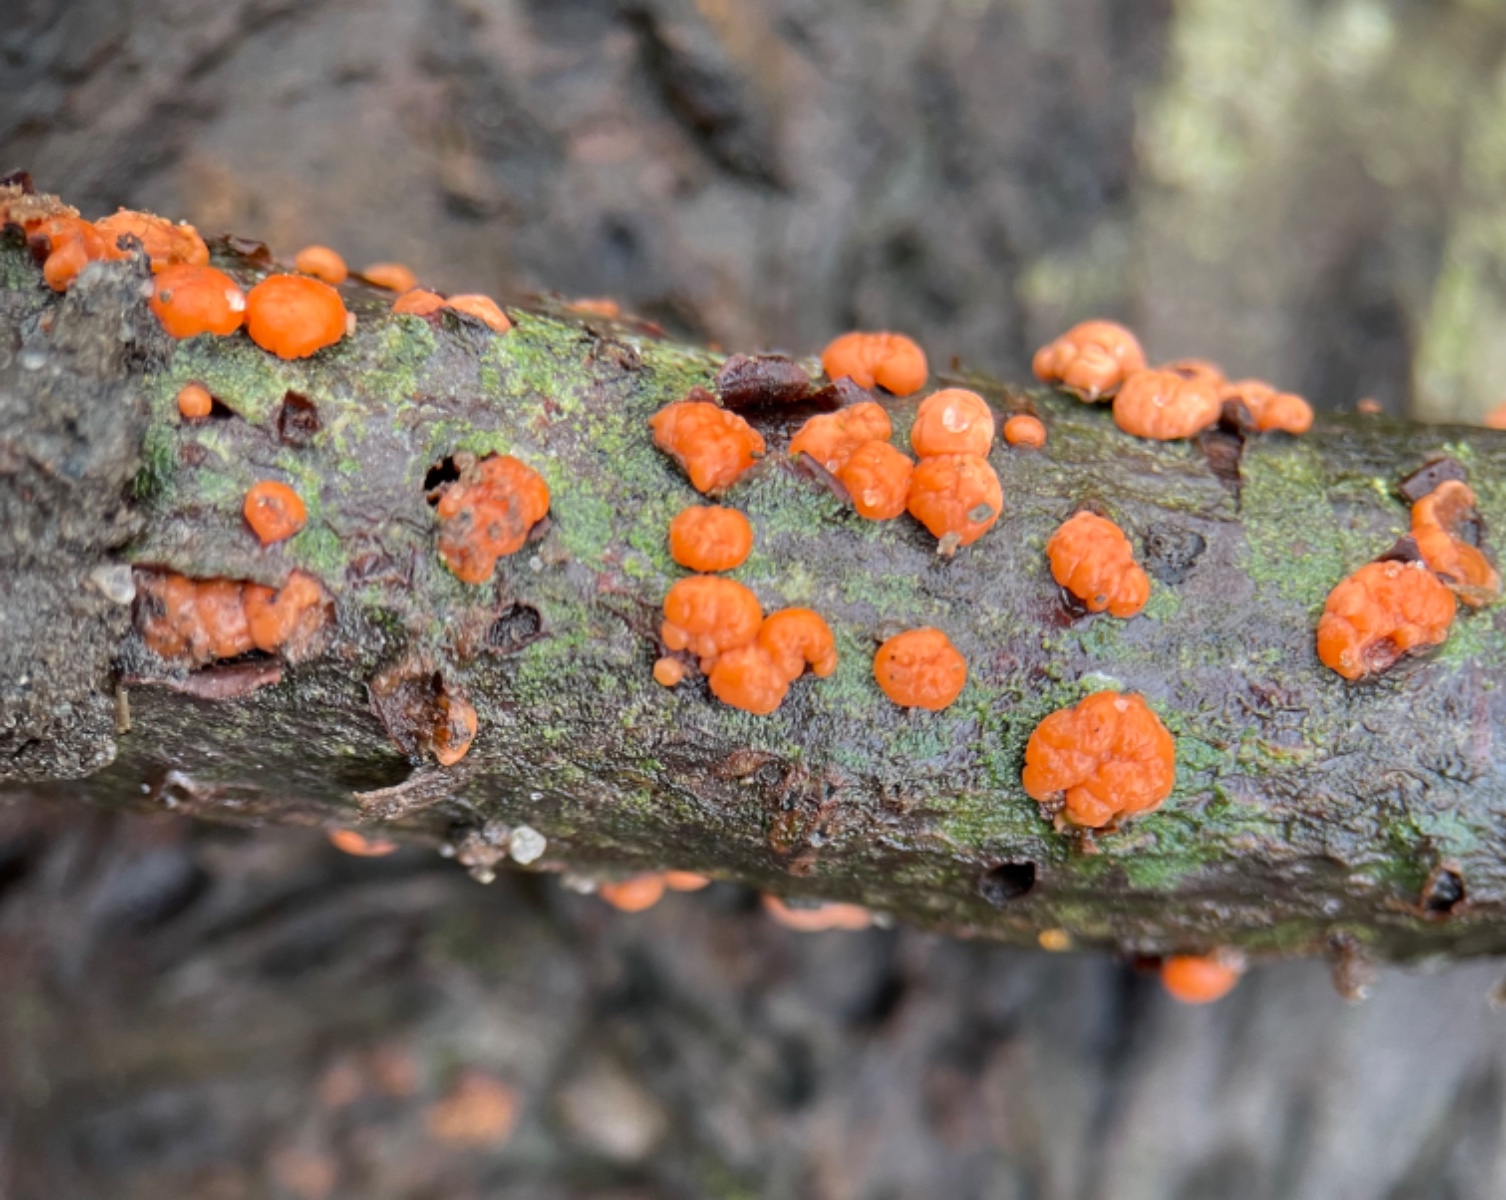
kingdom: Fungi
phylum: Ascomycota
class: Sordariomycetes
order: Hypocreales
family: Nectriaceae
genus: Nectria
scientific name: Nectria cinnabarina
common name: almindelig cinnobersvamp
